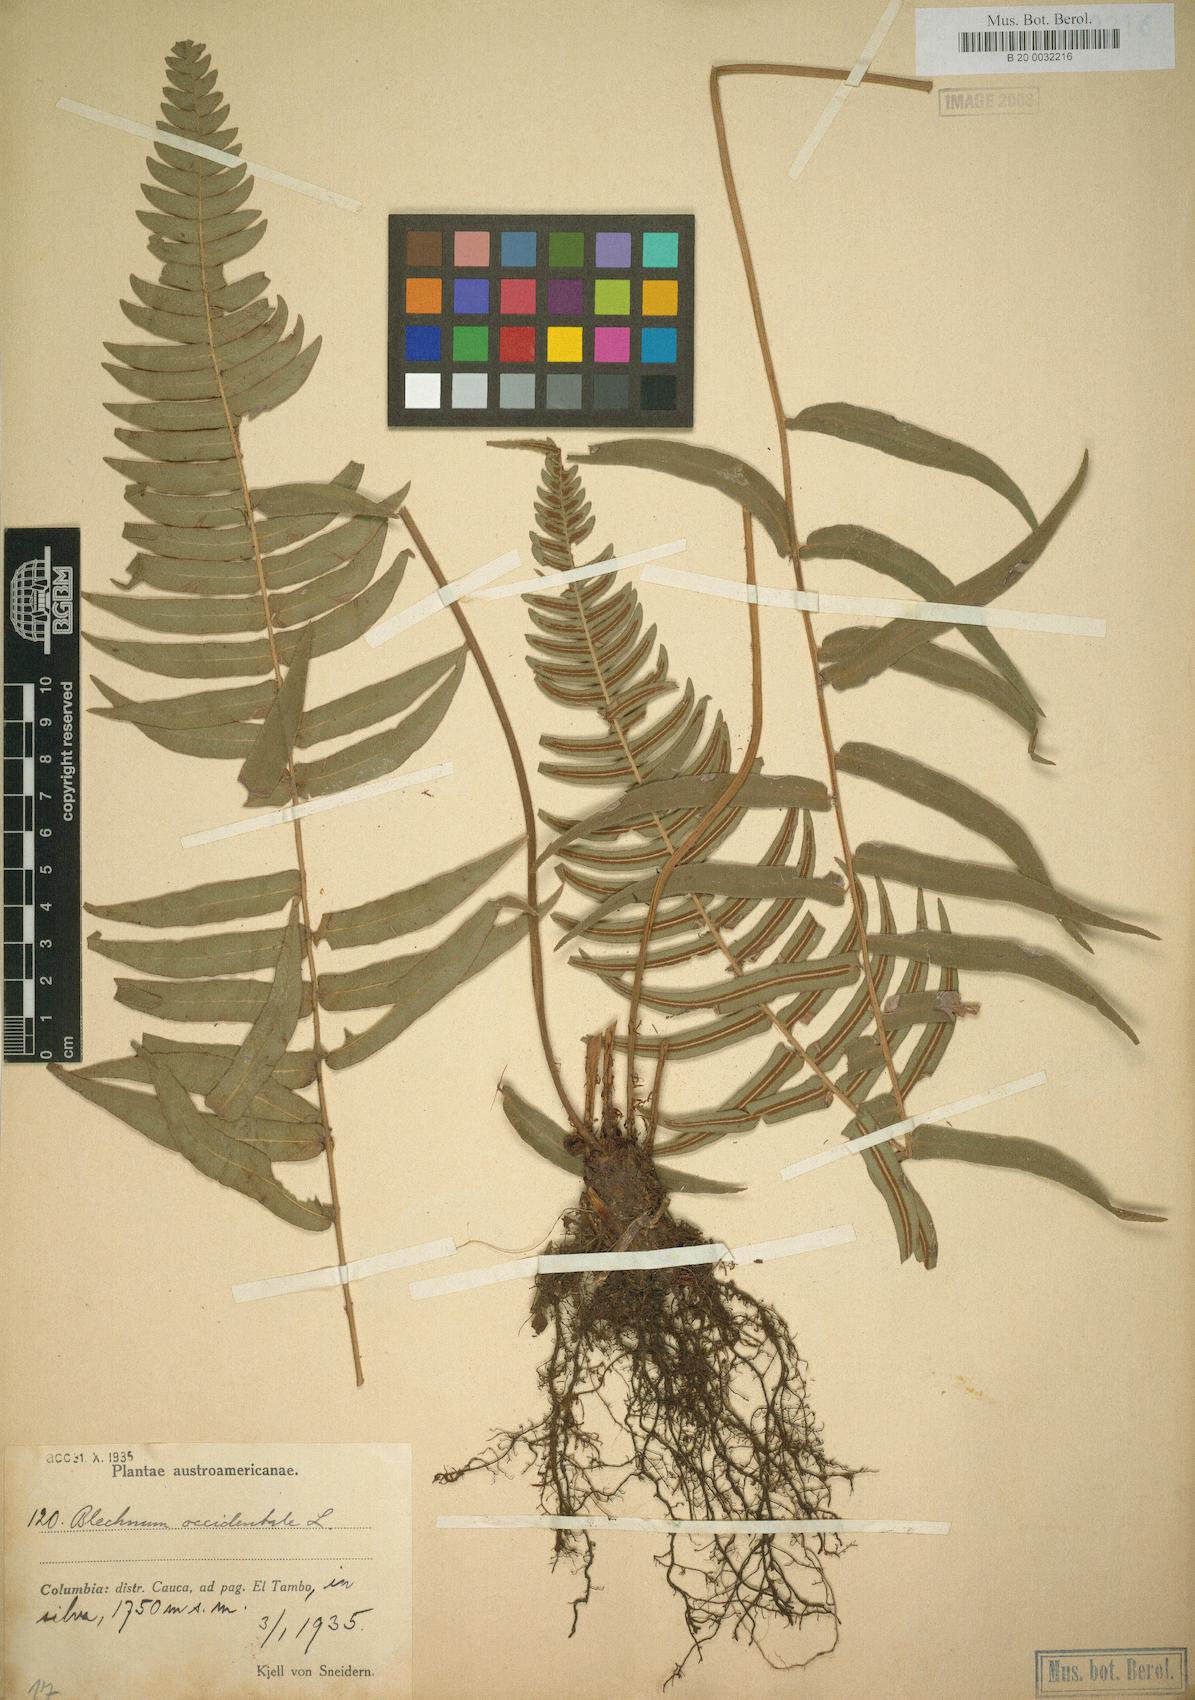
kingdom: Plantae
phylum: Tracheophyta
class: Polypodiopsida
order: Polypodiales
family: Blechnaceae
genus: Blechnum
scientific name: Blechnum occidentale
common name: Hammock fern
